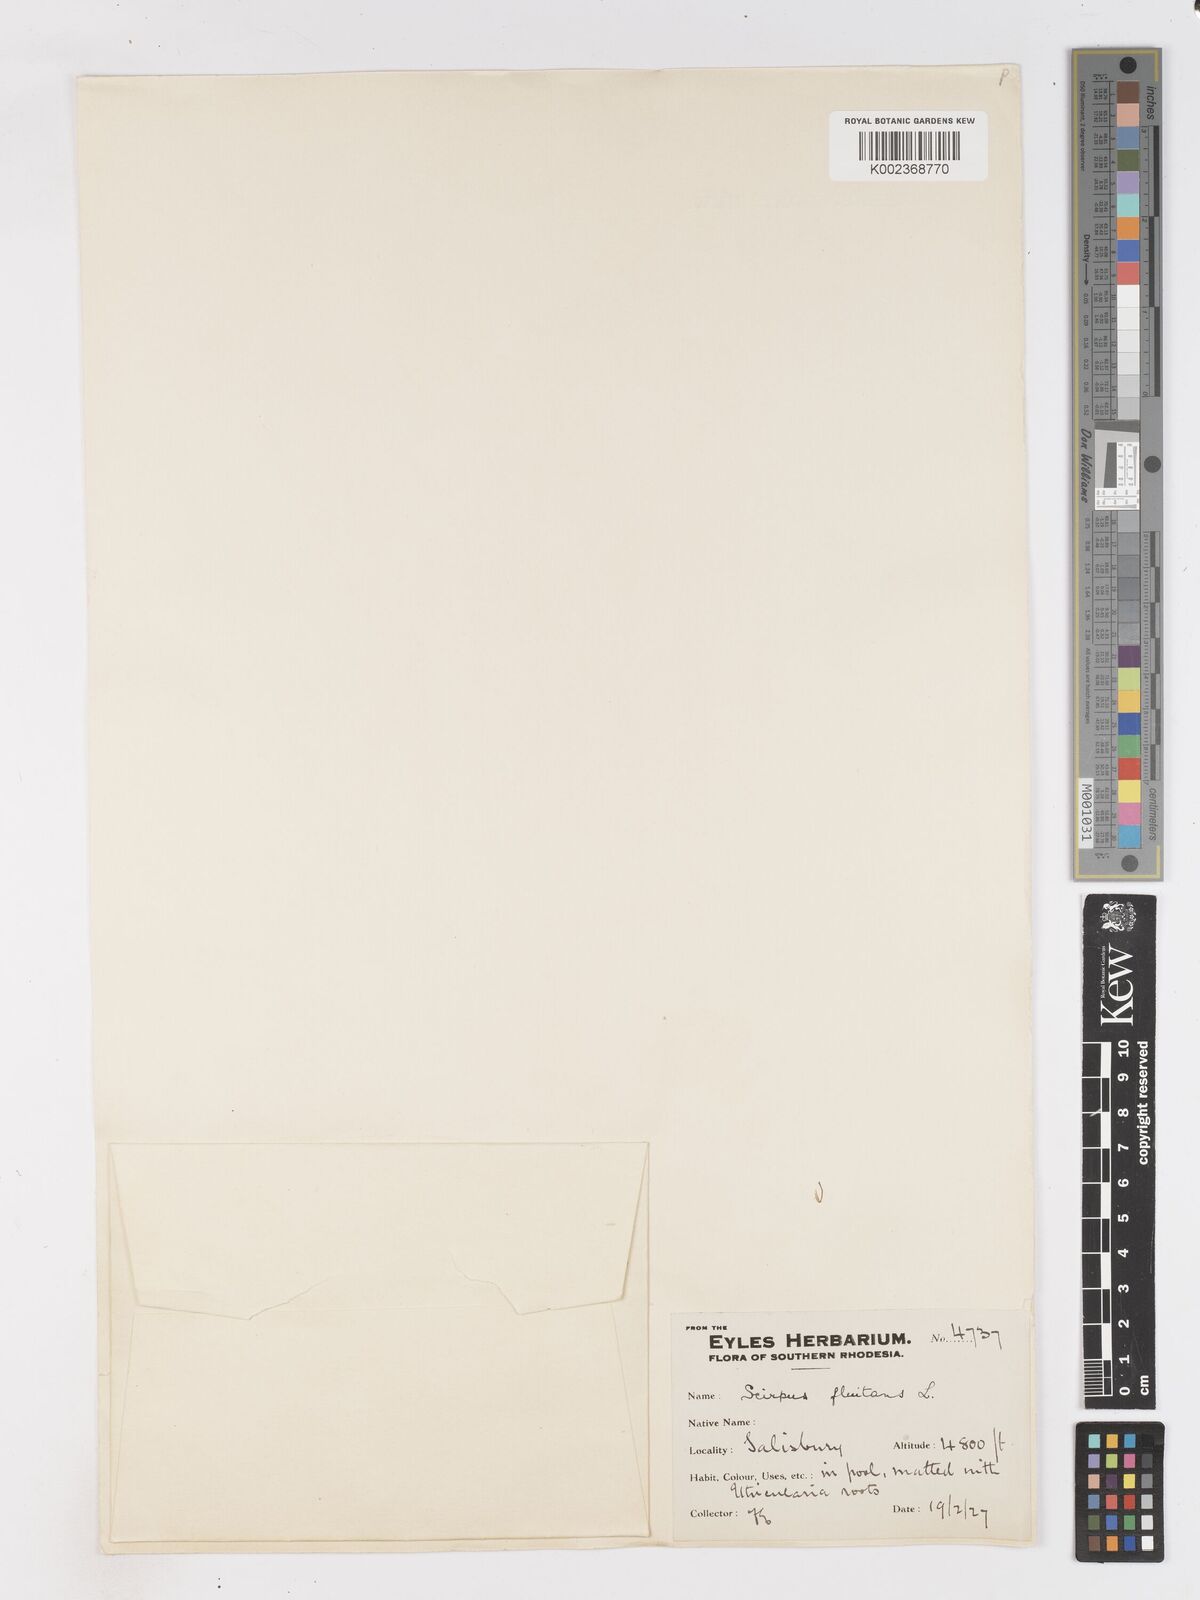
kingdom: Plantae
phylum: Tracheophyta
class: Liliopsida
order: Poales
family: Cyperaceae
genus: Isolepis
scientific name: Isolepis fluitans
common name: Floating club-rush
